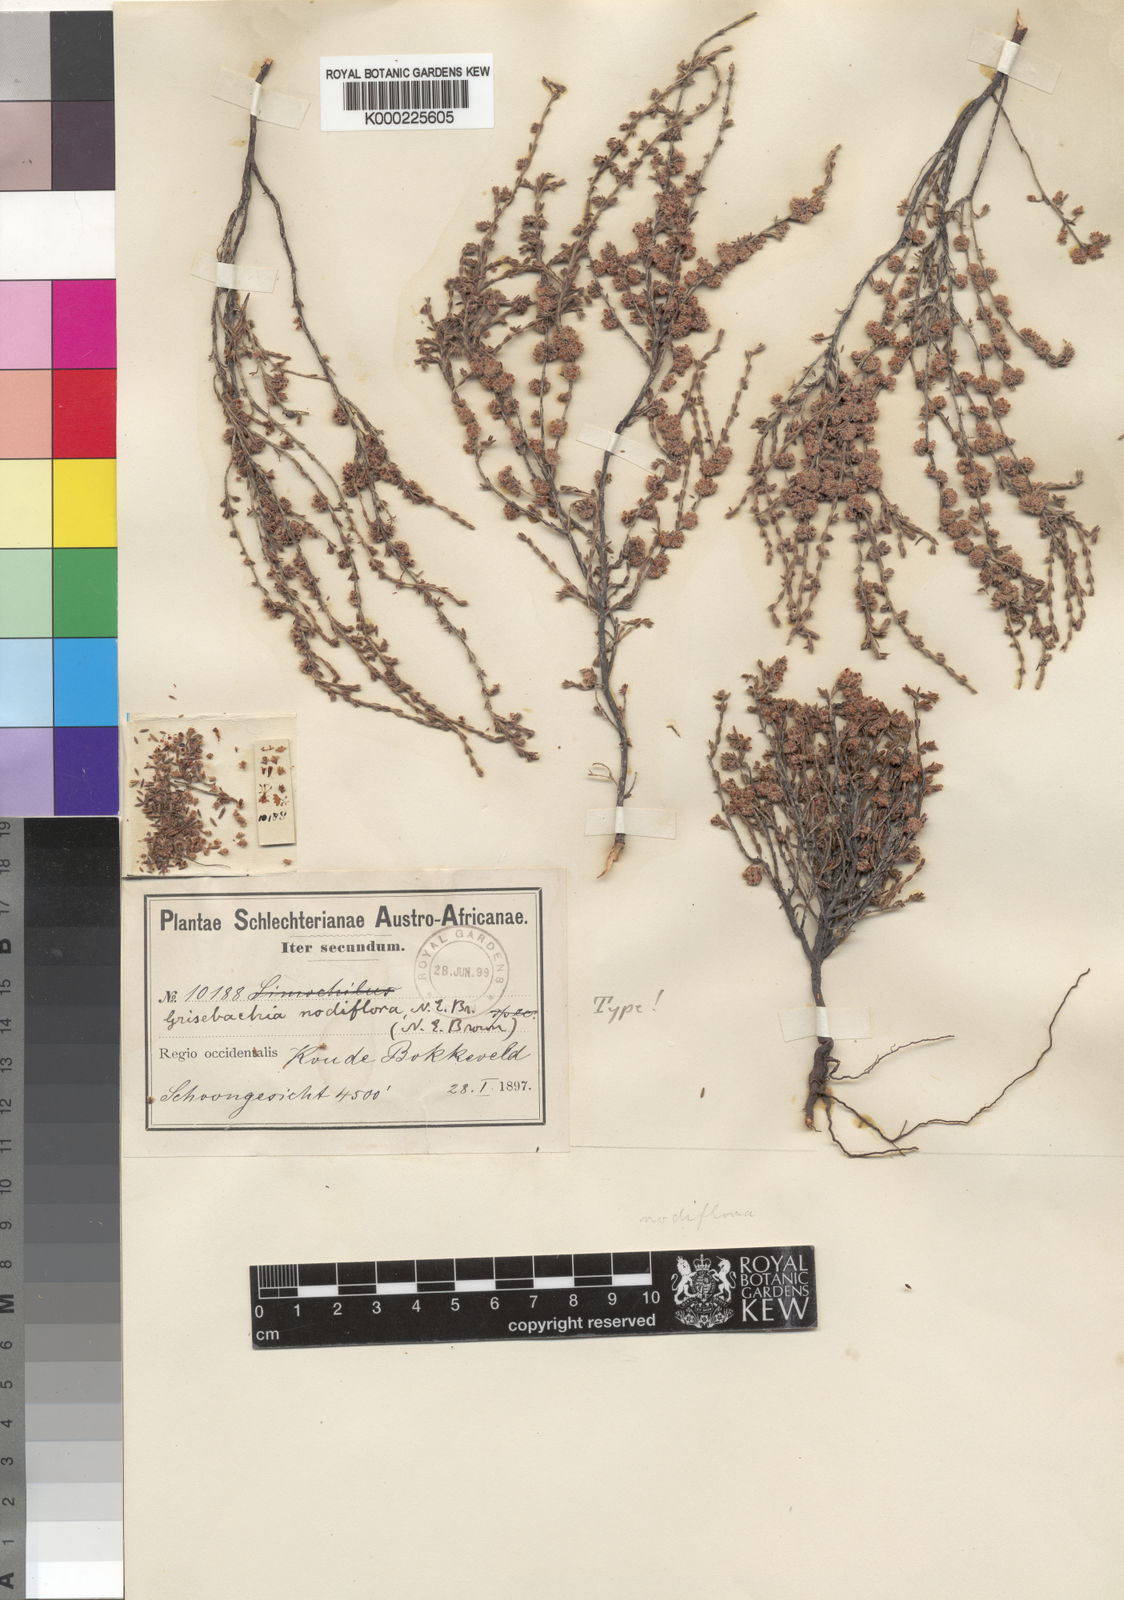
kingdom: Plantae
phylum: Tracheophyta
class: Magnoliopsida
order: Ericales
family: Ericaceae
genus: Erica
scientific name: Erica caprina
